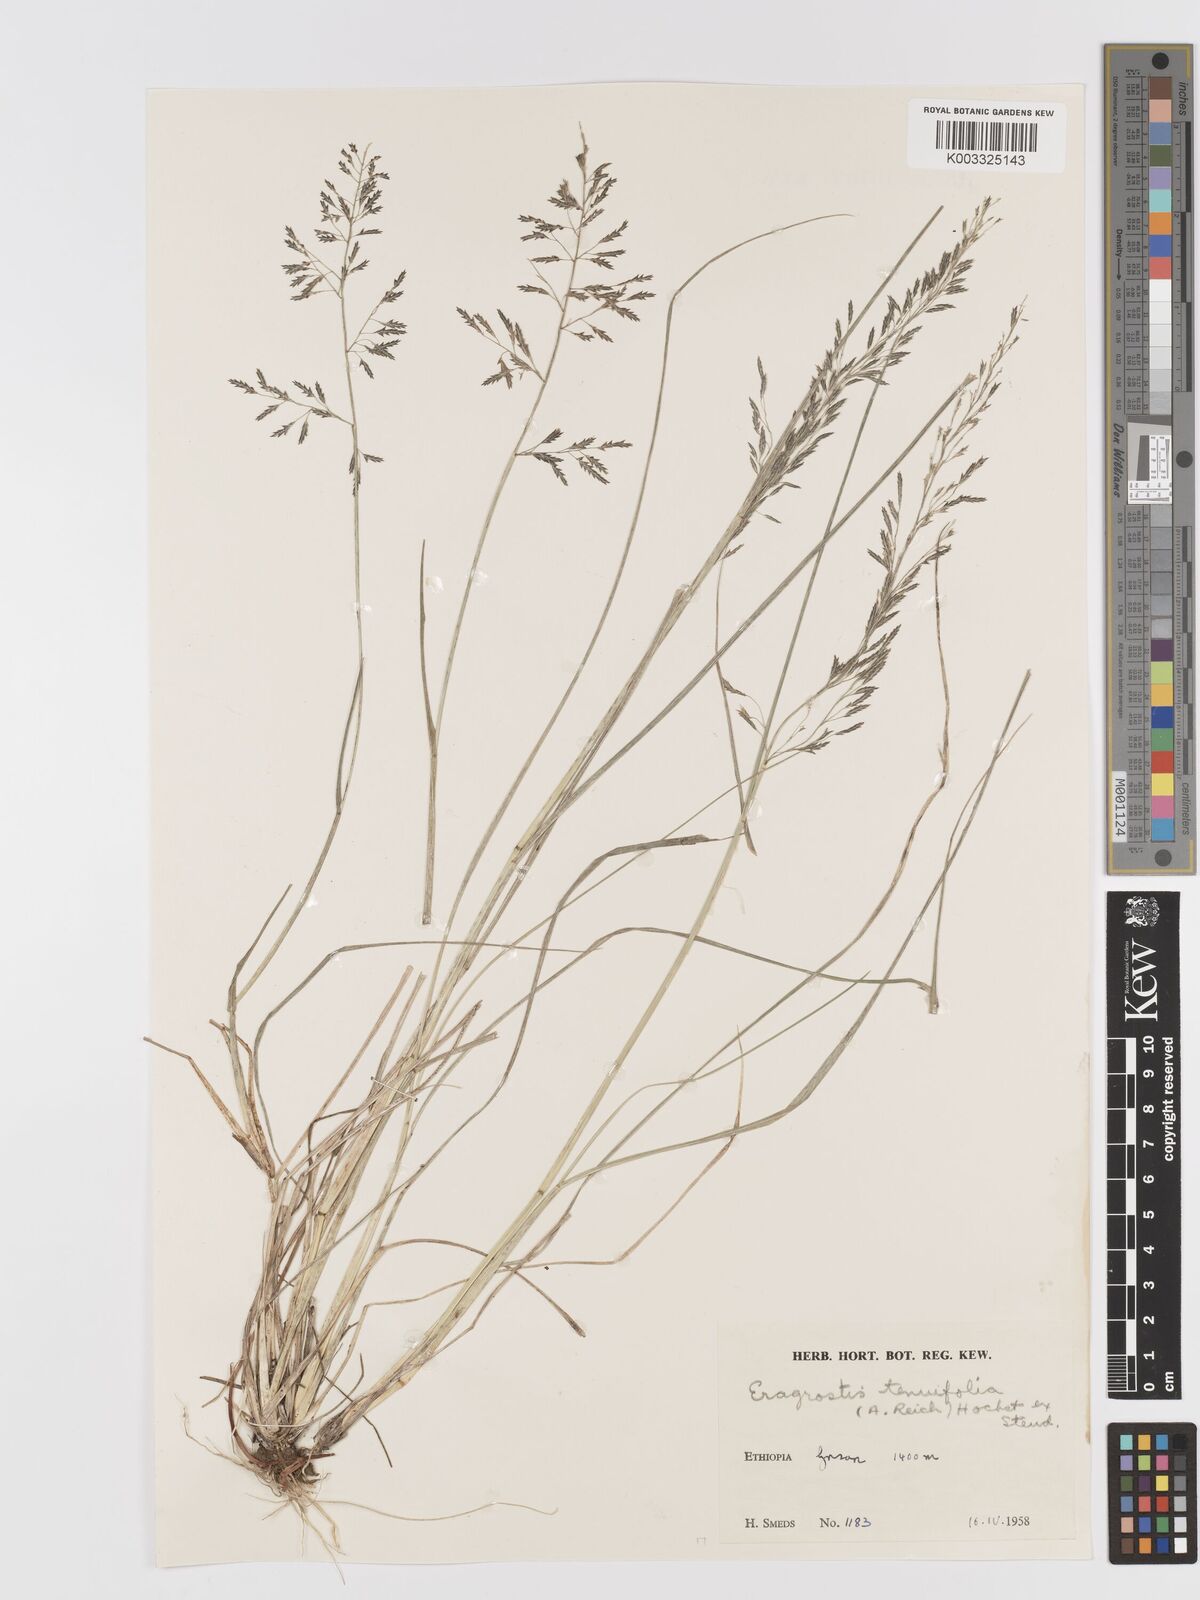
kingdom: Plantae
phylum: Tracheophyta
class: Liliopsida
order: Poales
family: Poaceae
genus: Eragrostis
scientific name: Eragrostis tenuifolia
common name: Elastic grass
